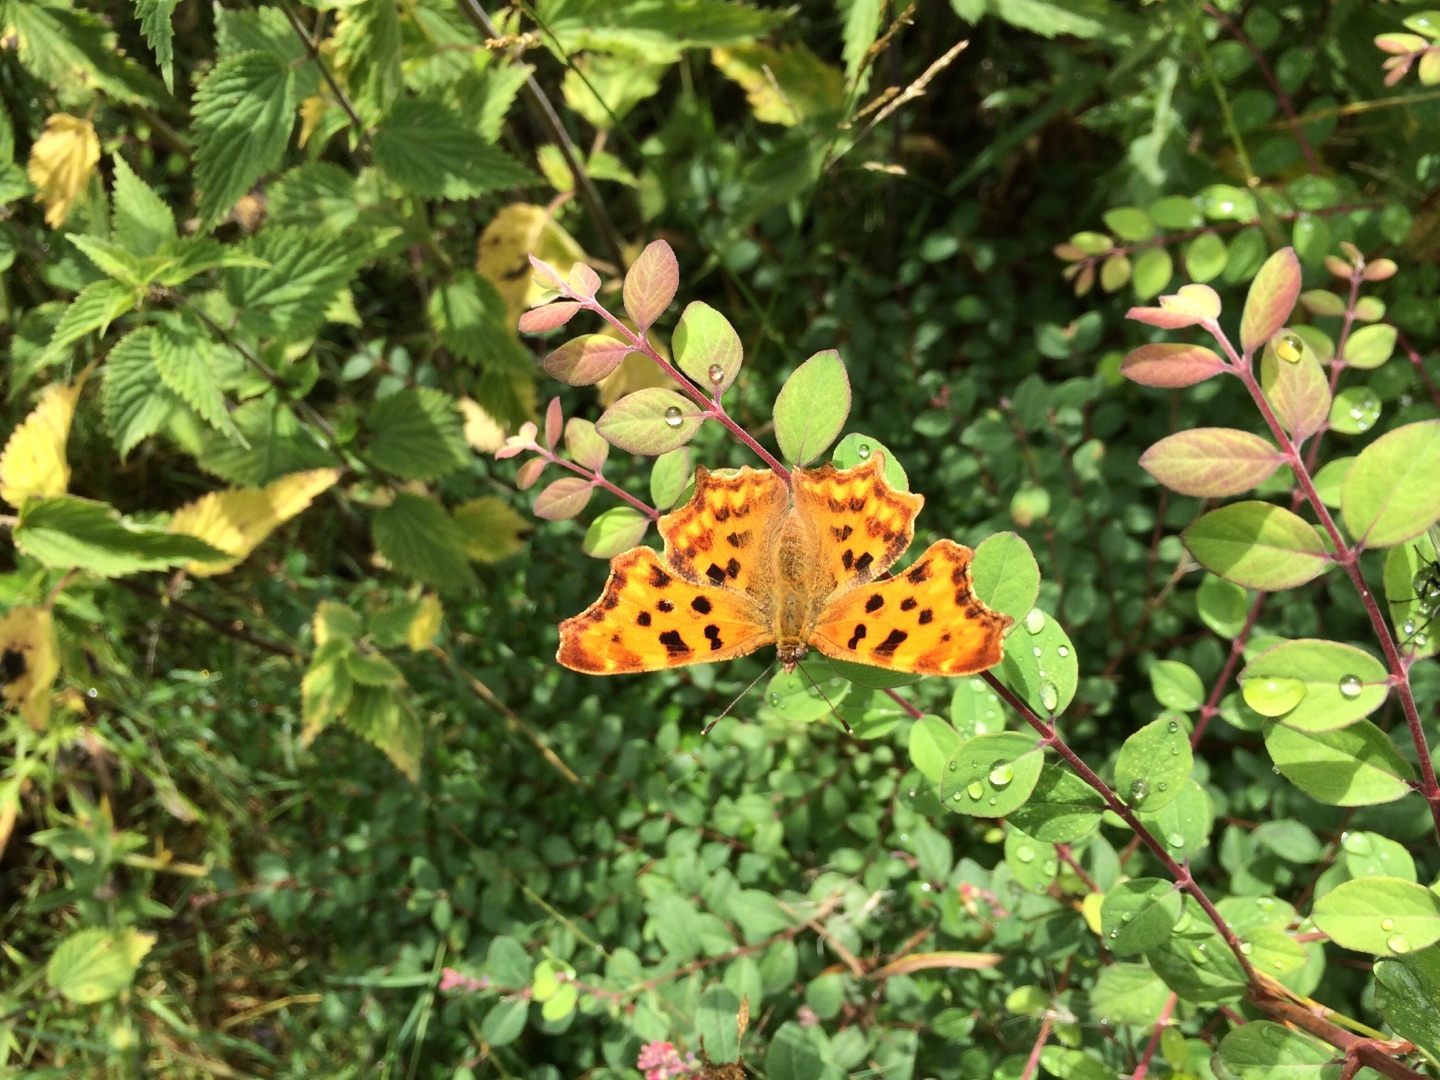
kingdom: Animalia
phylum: Arthropoda
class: Insecta
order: Lepidoptera
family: Nymphalidae
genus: Polygonia
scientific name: Polygonia c-album
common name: Det hvide C
